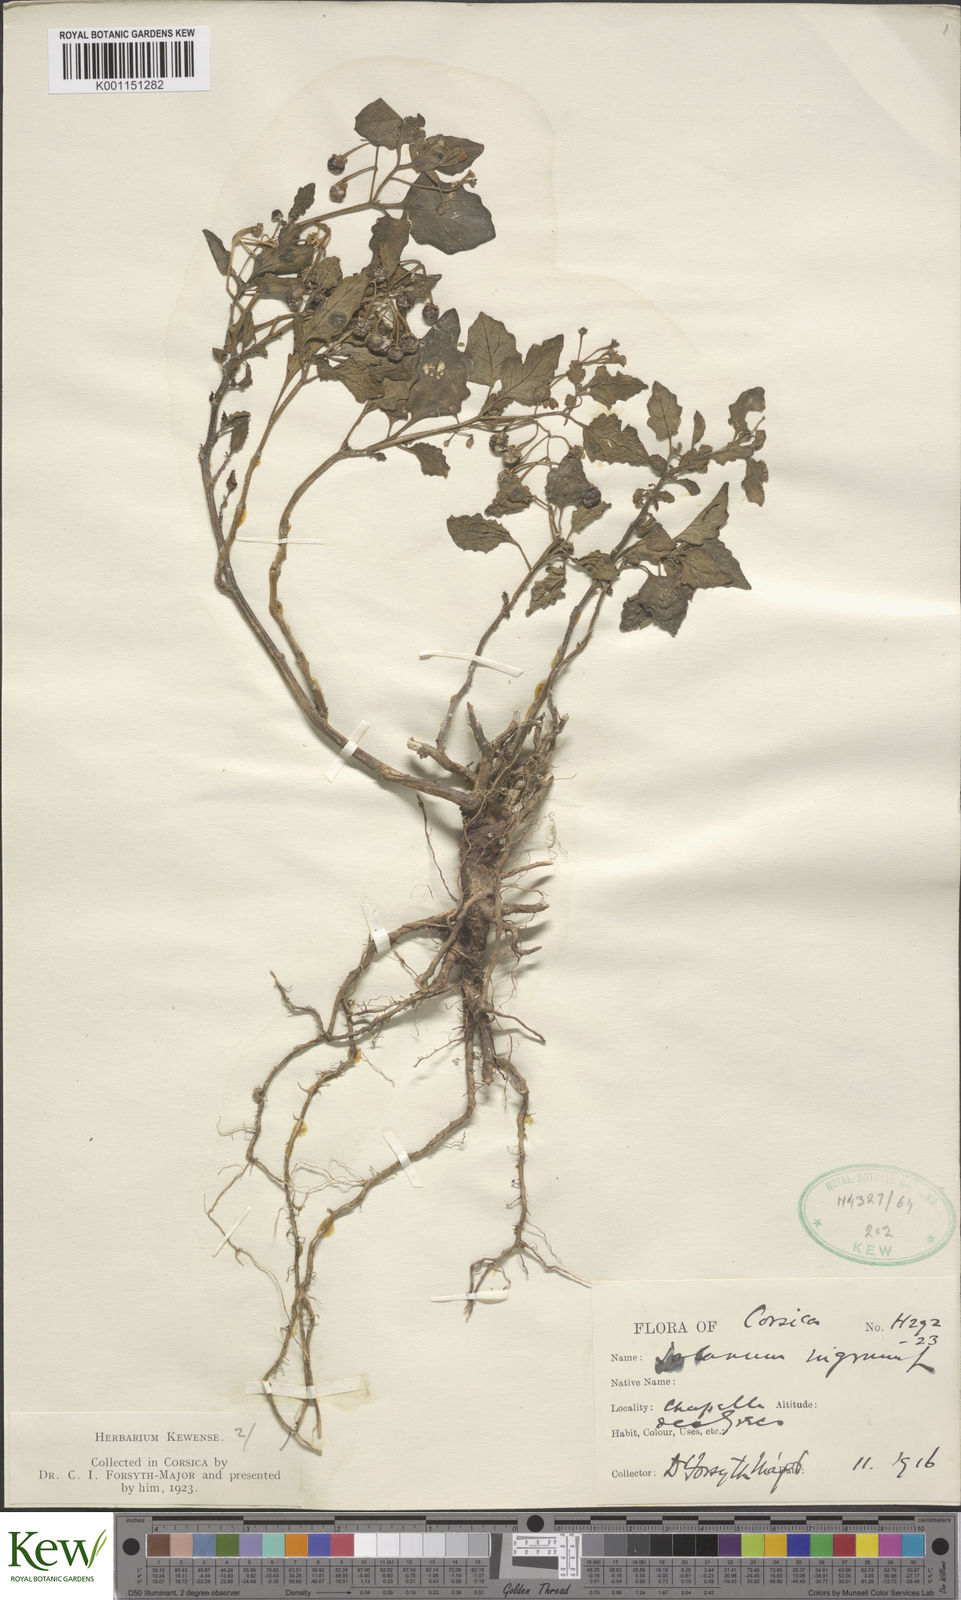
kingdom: Plantae
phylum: Tracheophyta
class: Magnoliopsida
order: Solanales
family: Solanaceae
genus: Solanum
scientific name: Solanum nigrum
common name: Black nightshade
